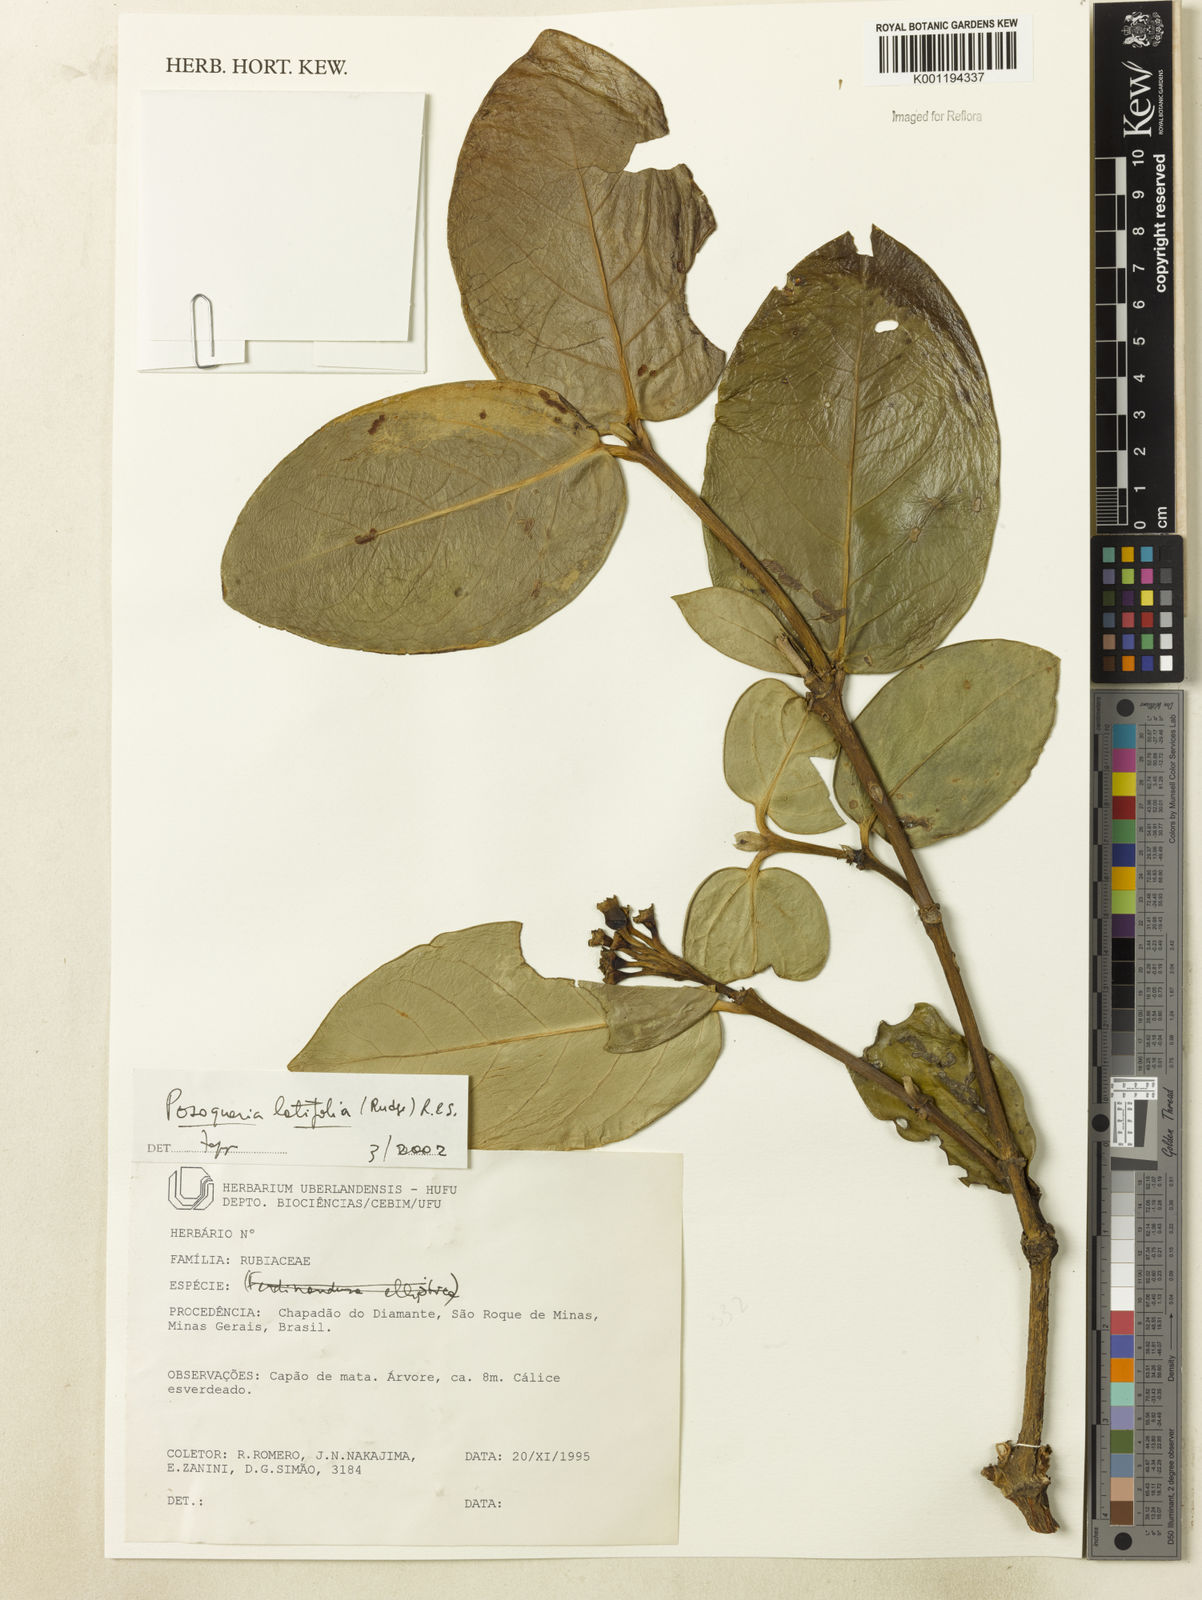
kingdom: Plantae
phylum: Tracheophyta
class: Magnoliopsida
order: Gentianales
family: Rubiaceae
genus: Posoqueria
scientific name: Posoqueria latifolia
